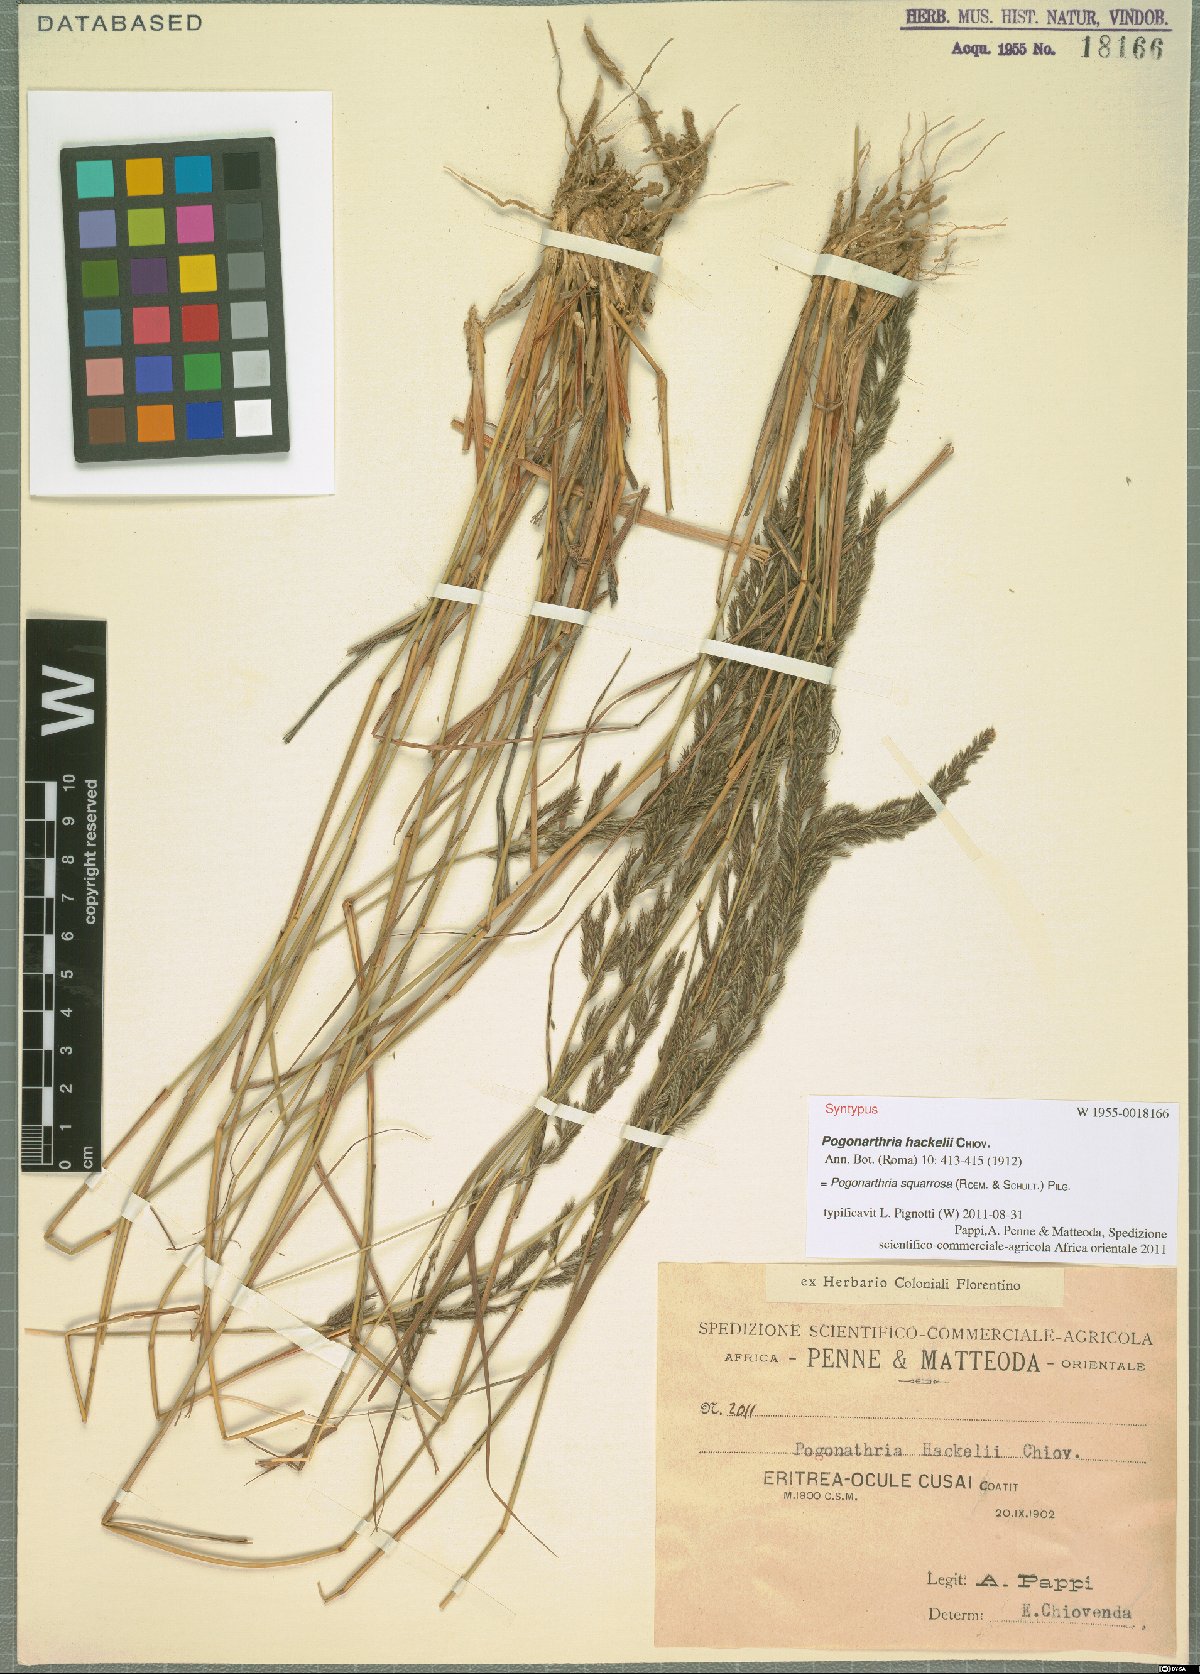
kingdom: Plantae
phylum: Tracheophyta
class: Liliopsida
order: Poales
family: Poaceae
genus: Pogonarthria
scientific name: Pogonarthria squarrosa
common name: Grass
